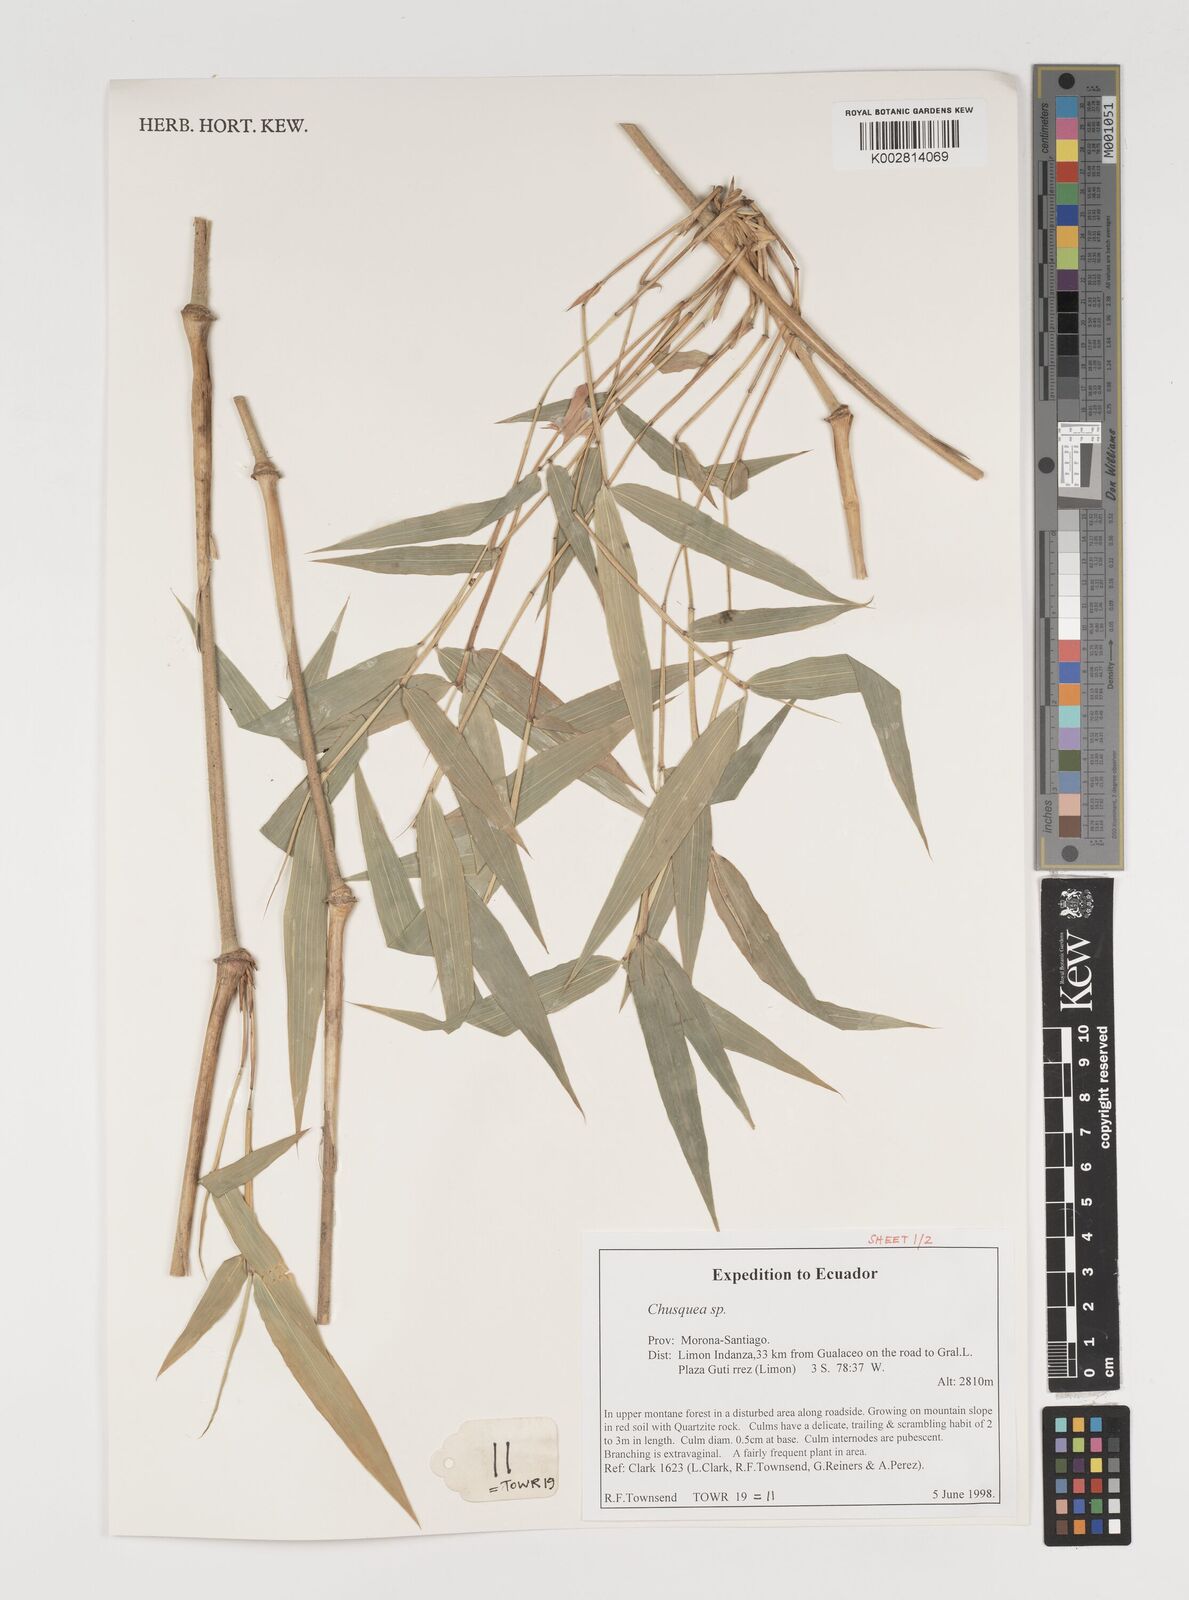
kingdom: Plantae
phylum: Tracheophyta
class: Liliopsida
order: Poales
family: Poaceae
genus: Chusquea
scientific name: Chusquea
